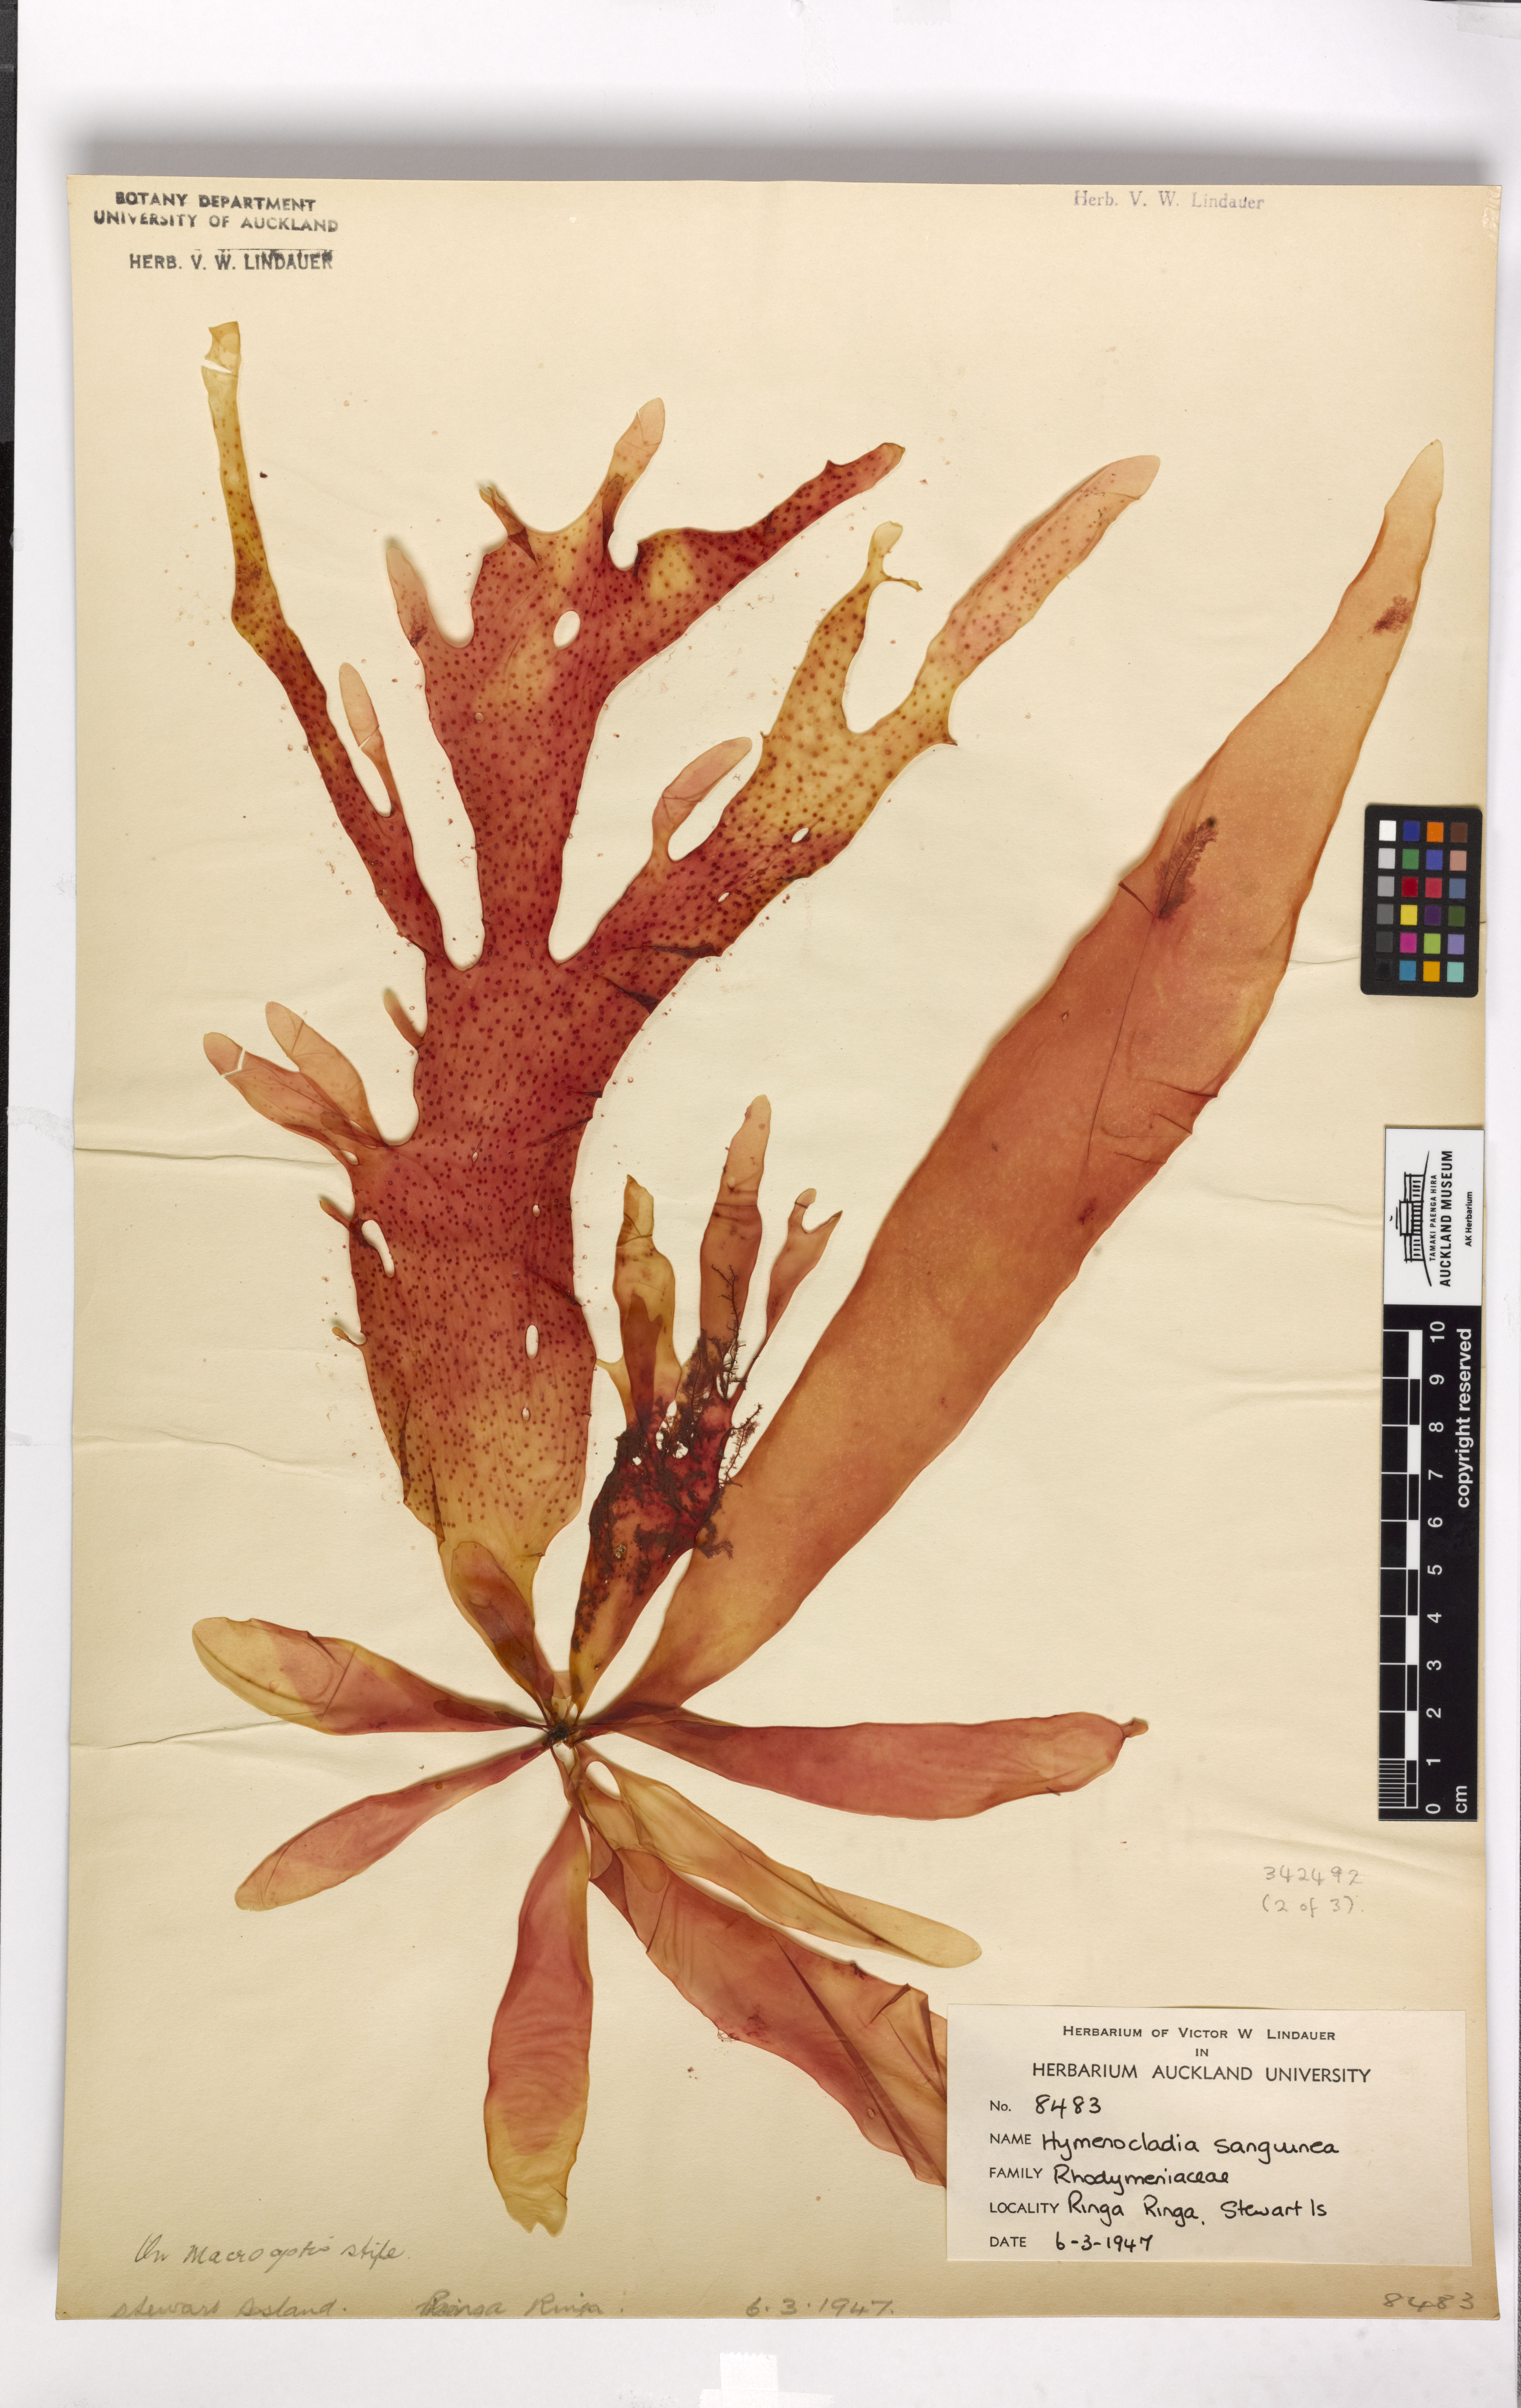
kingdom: Plantae
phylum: Rhodophyta
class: Florideophyceae
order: Rhodymeniales
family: Hymenocladiaceae
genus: Hymenocladia
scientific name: Hymenocladia sanguinea
